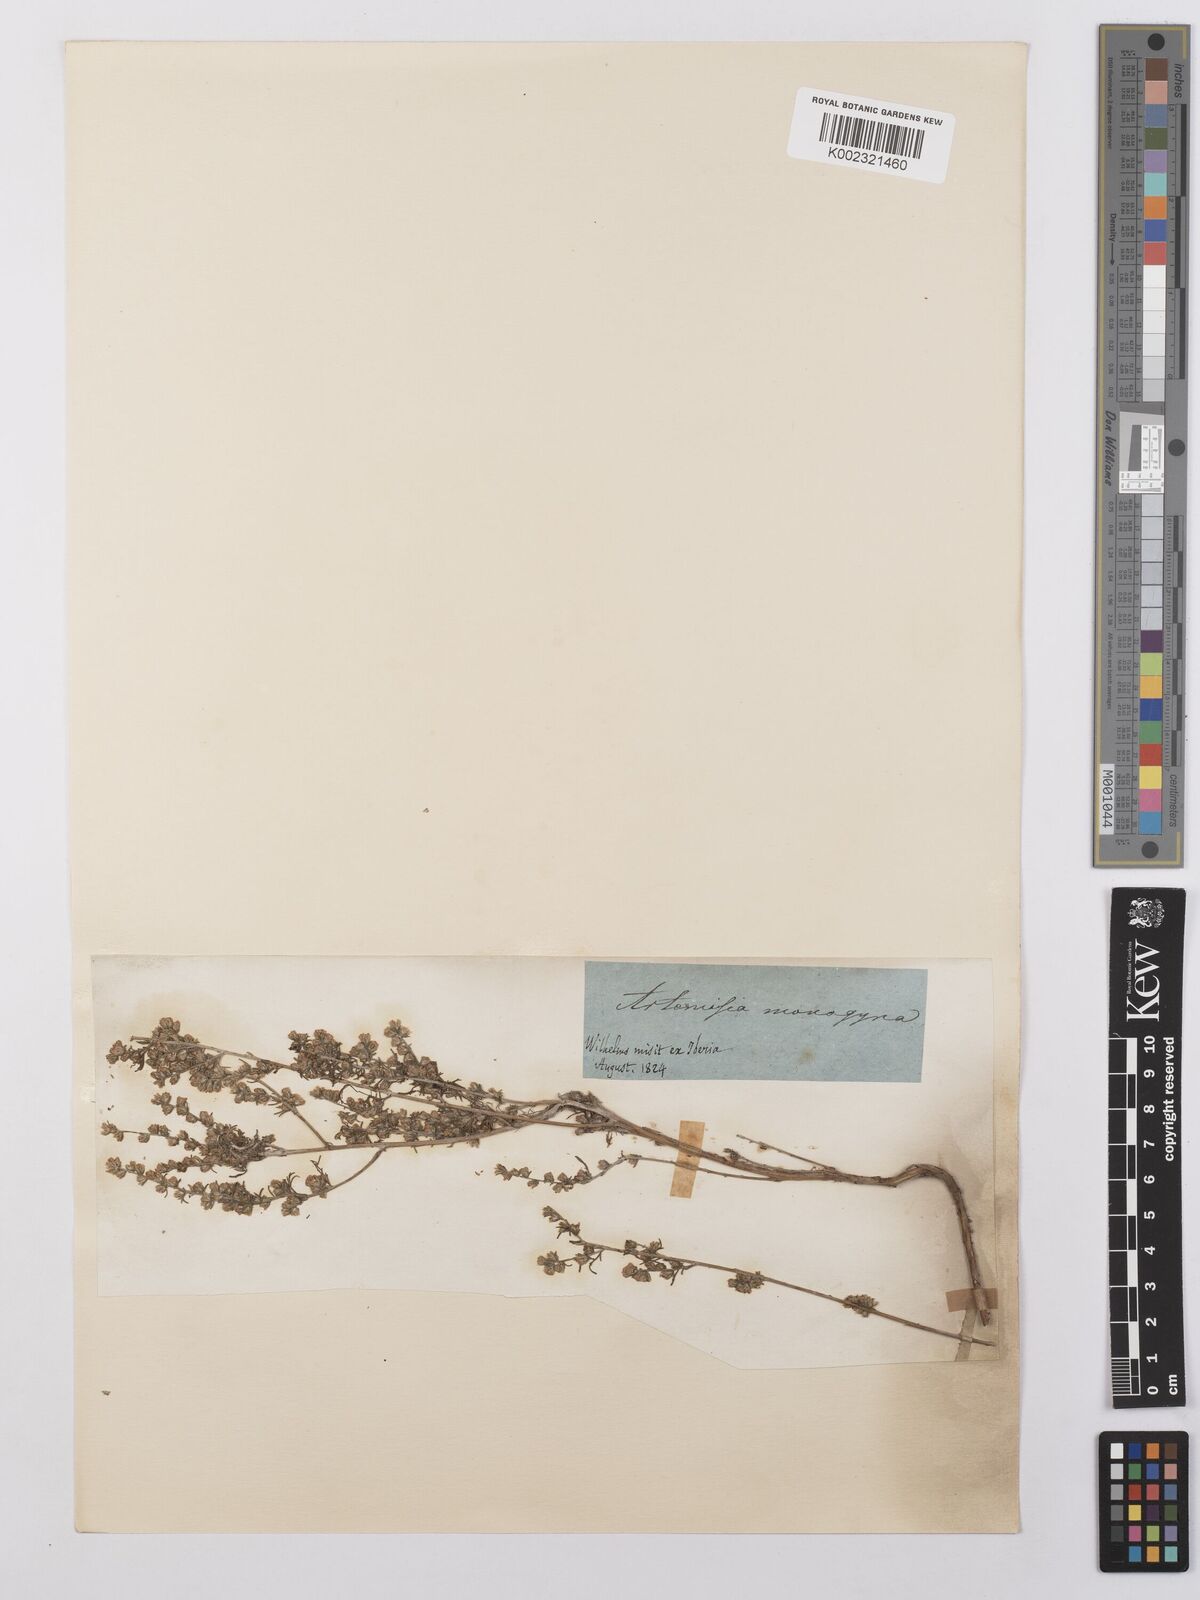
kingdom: Plantae
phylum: Tracheophyta
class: Magnoliopsida
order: Asterales
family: Asteraceae
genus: Artemisia
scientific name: Artemisia fragrans
